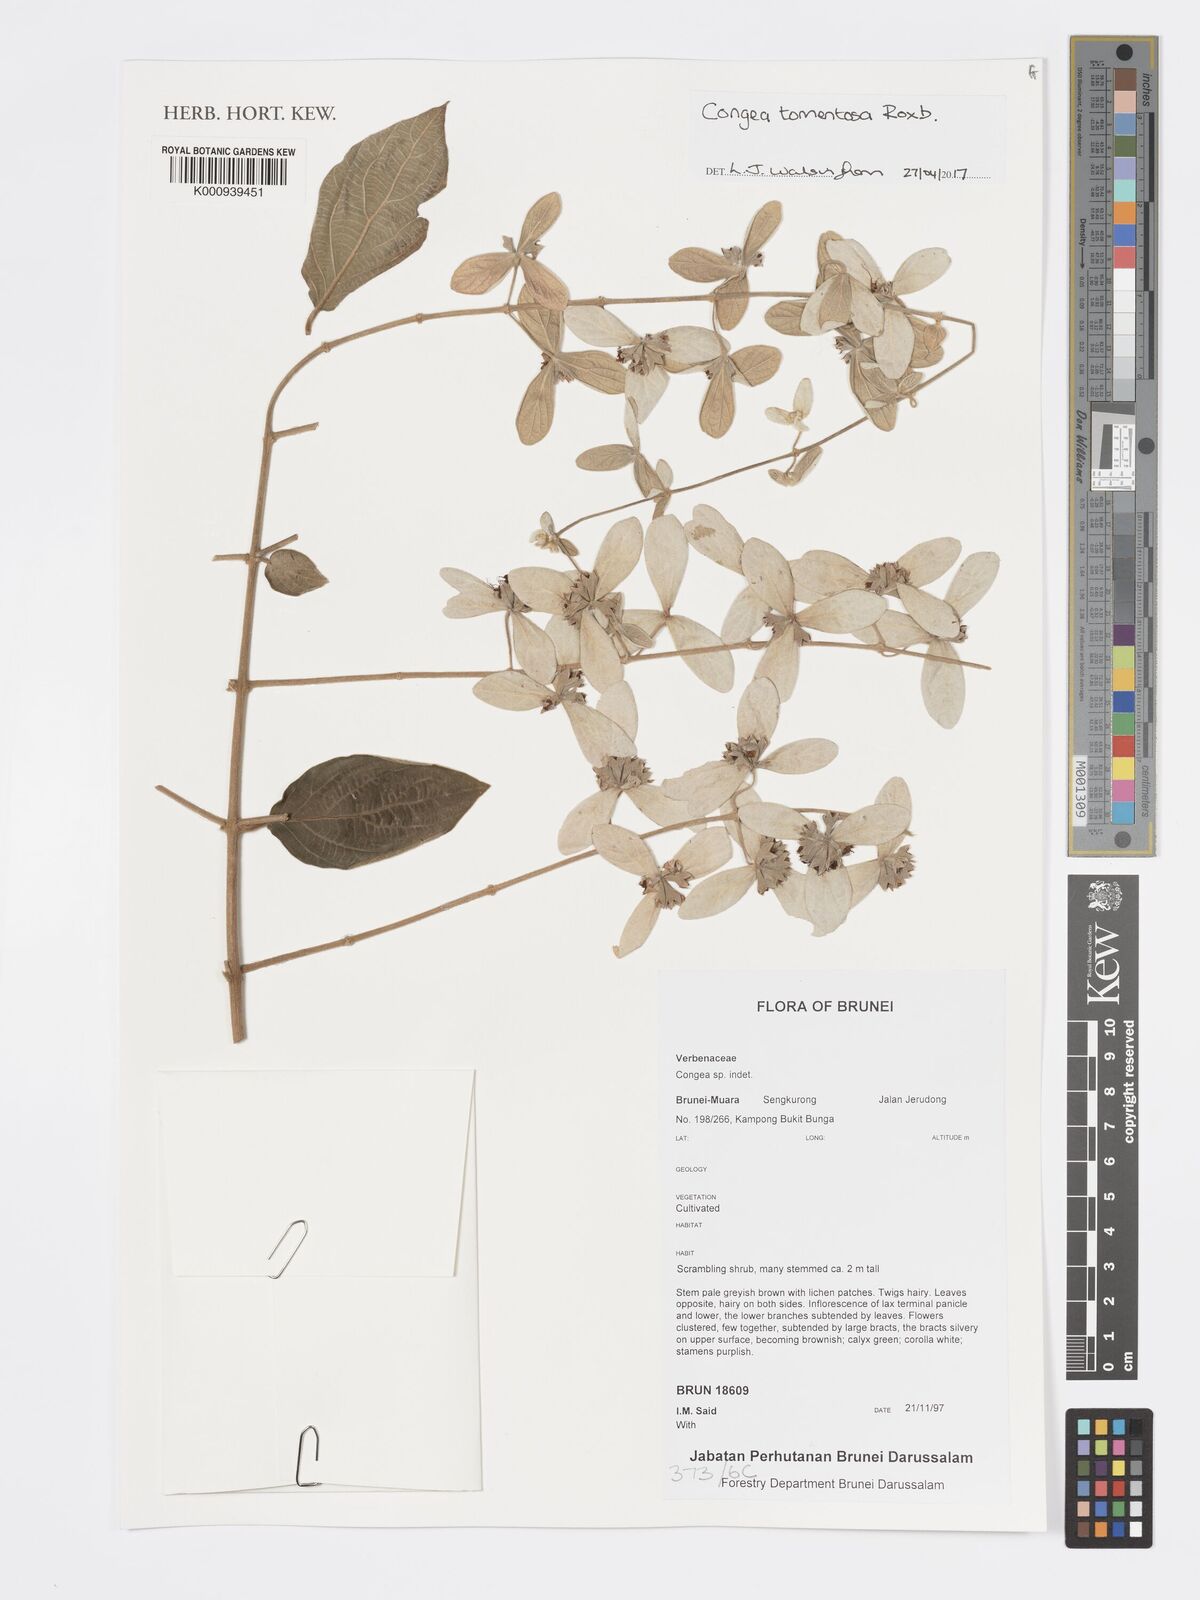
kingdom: Plantae
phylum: Tracheophyta
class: Magnoliopsida
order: Lamiales
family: Lamiaceae
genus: Congea
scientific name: Congea tomentosa
